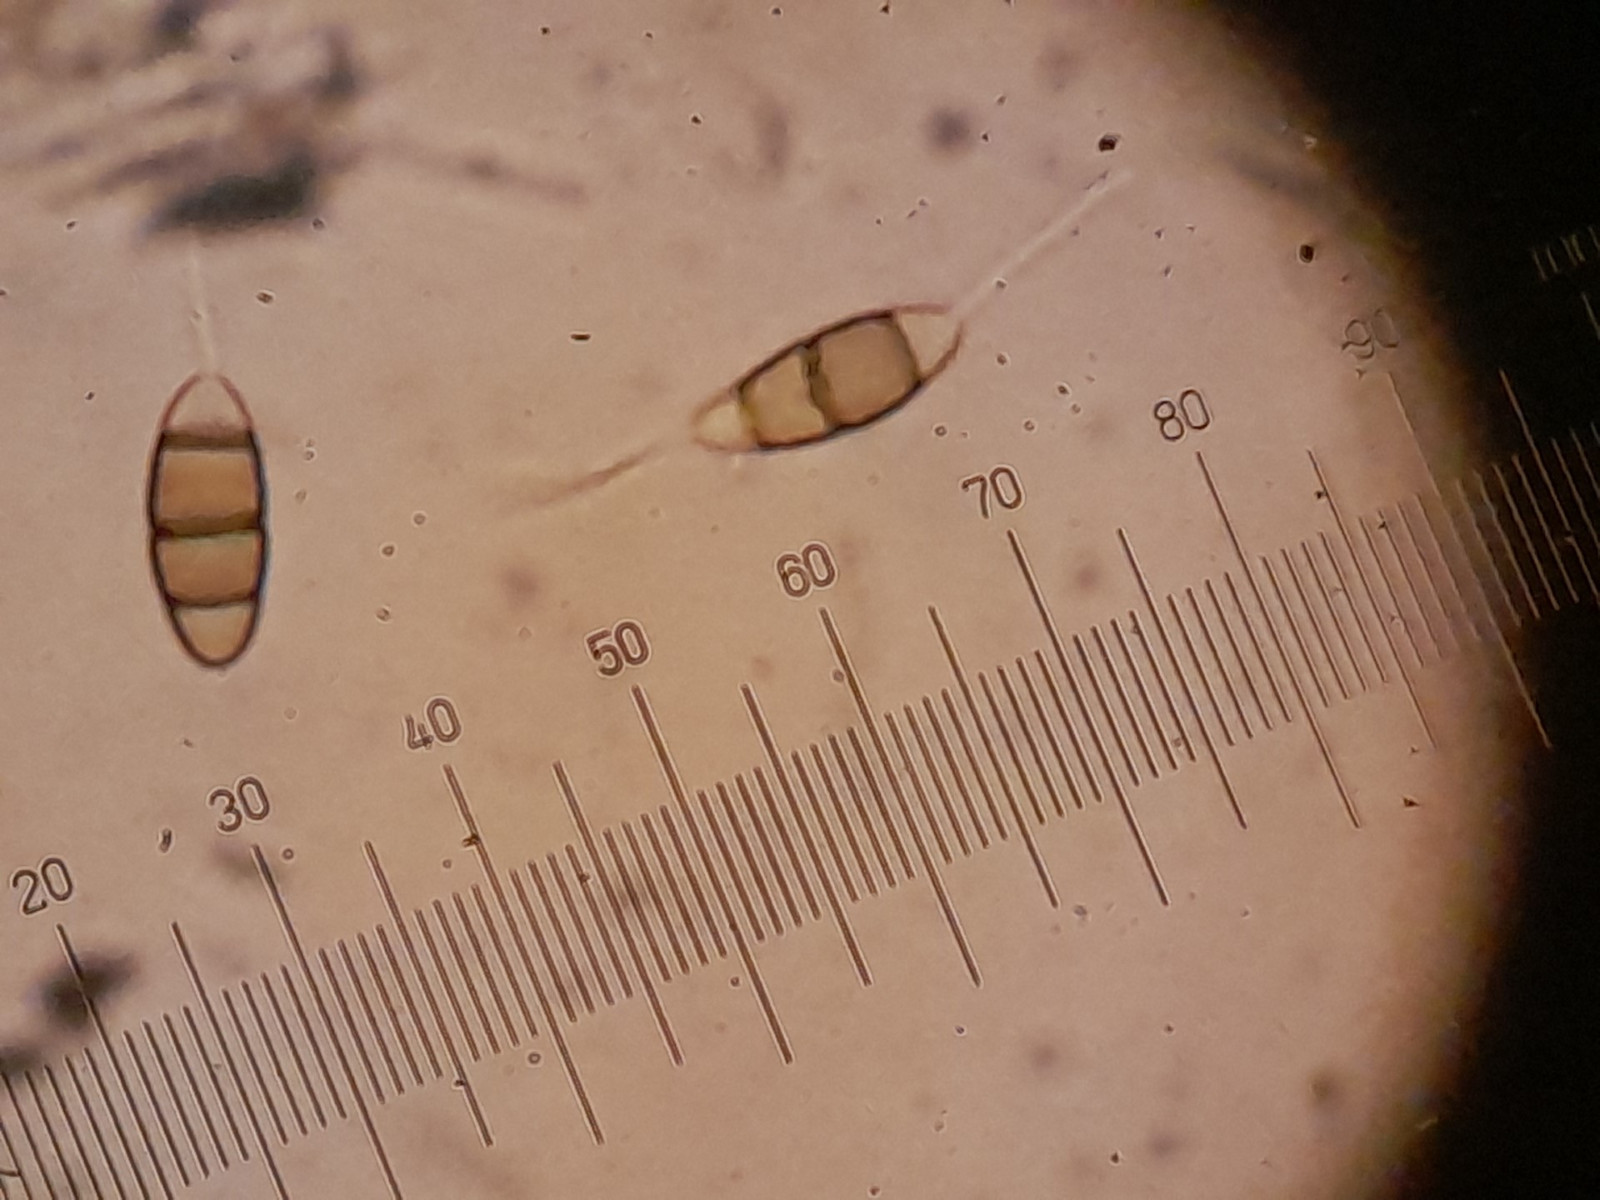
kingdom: Fungi
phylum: Ascomycota
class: Sordariomycetes
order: Amphisphaeriales
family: Sporocadaceae
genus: Sporocadus
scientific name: Sporocadus rosarum
